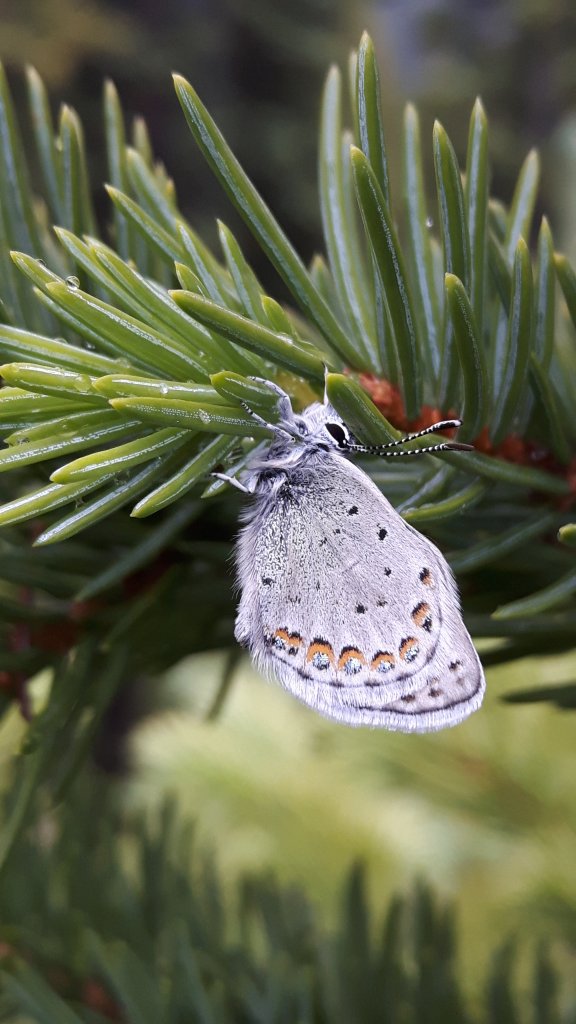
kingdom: Animalia
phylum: Arthropoda
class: Insecta
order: Lepidoptera
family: Lycaenidae
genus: Lycaeides
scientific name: Lycaeides melissa
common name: Melissa Blue
